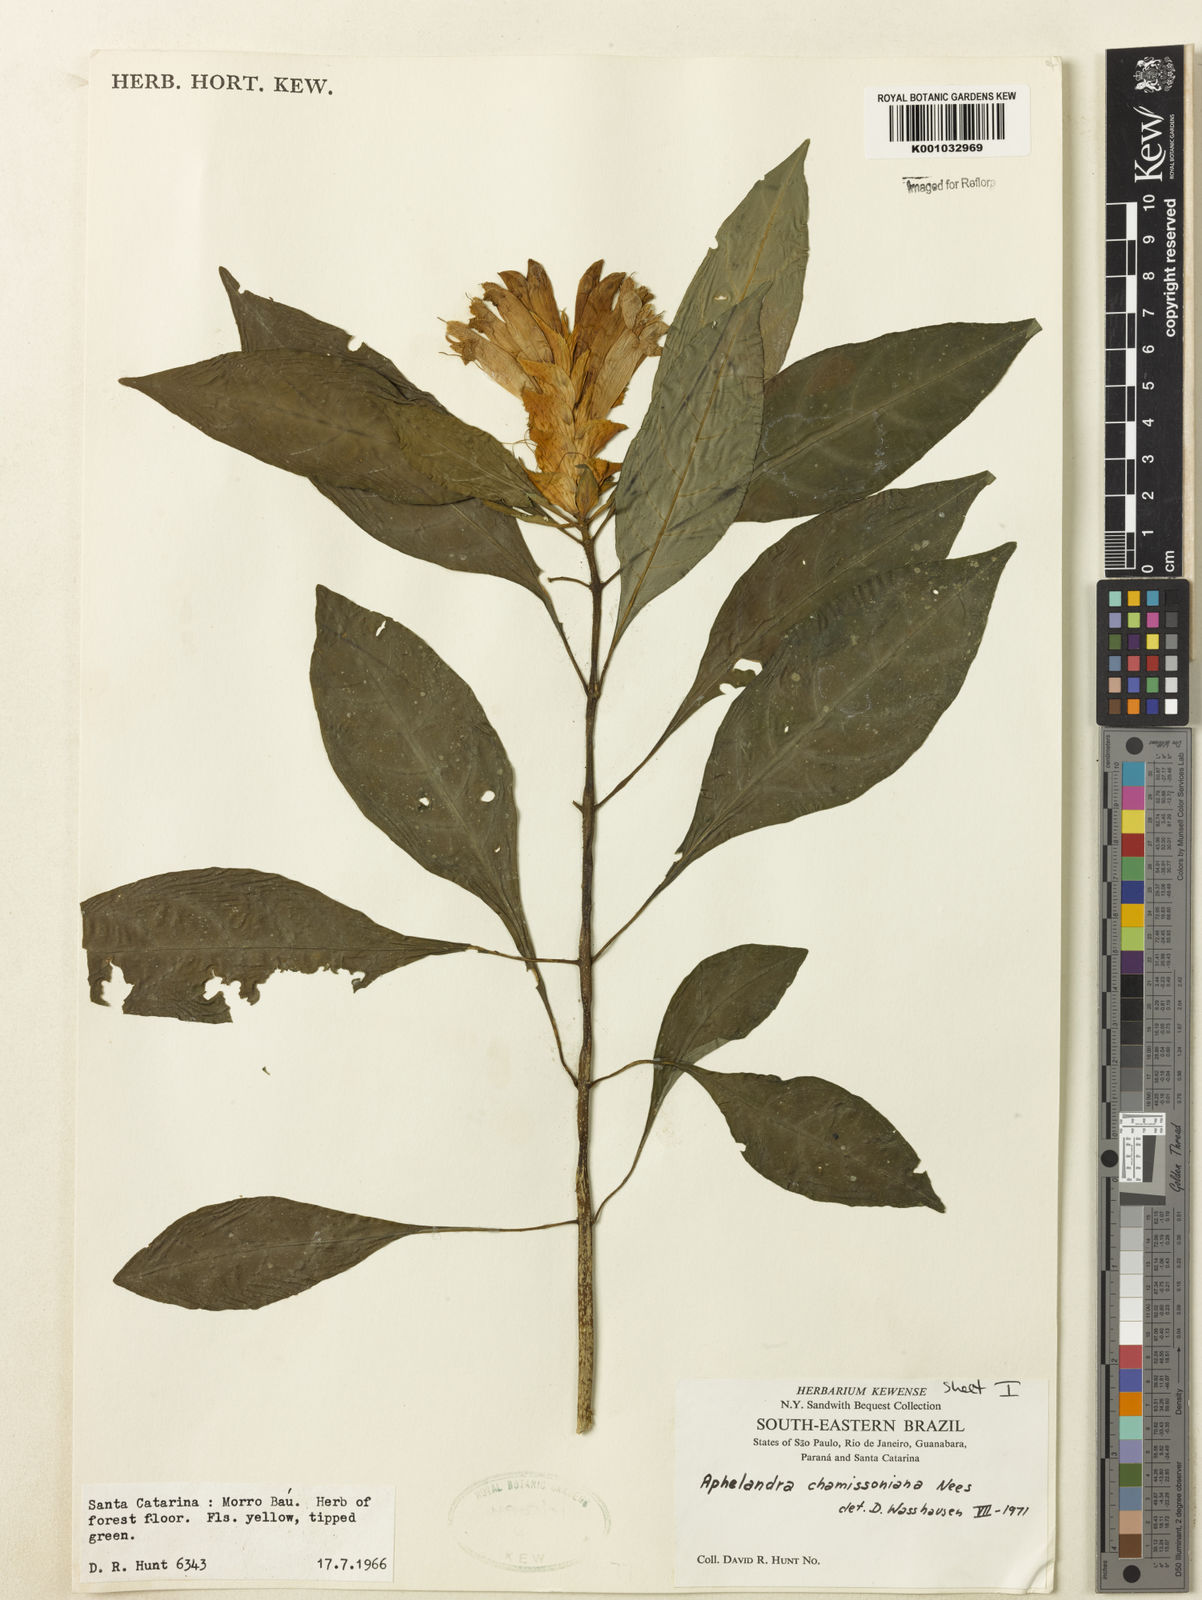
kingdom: Plantae
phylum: Tracheophyta
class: Magnoliopsida
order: Lamiales
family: Acanthaceae
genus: Aphelandra
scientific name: Aphelandra chamissoniana
